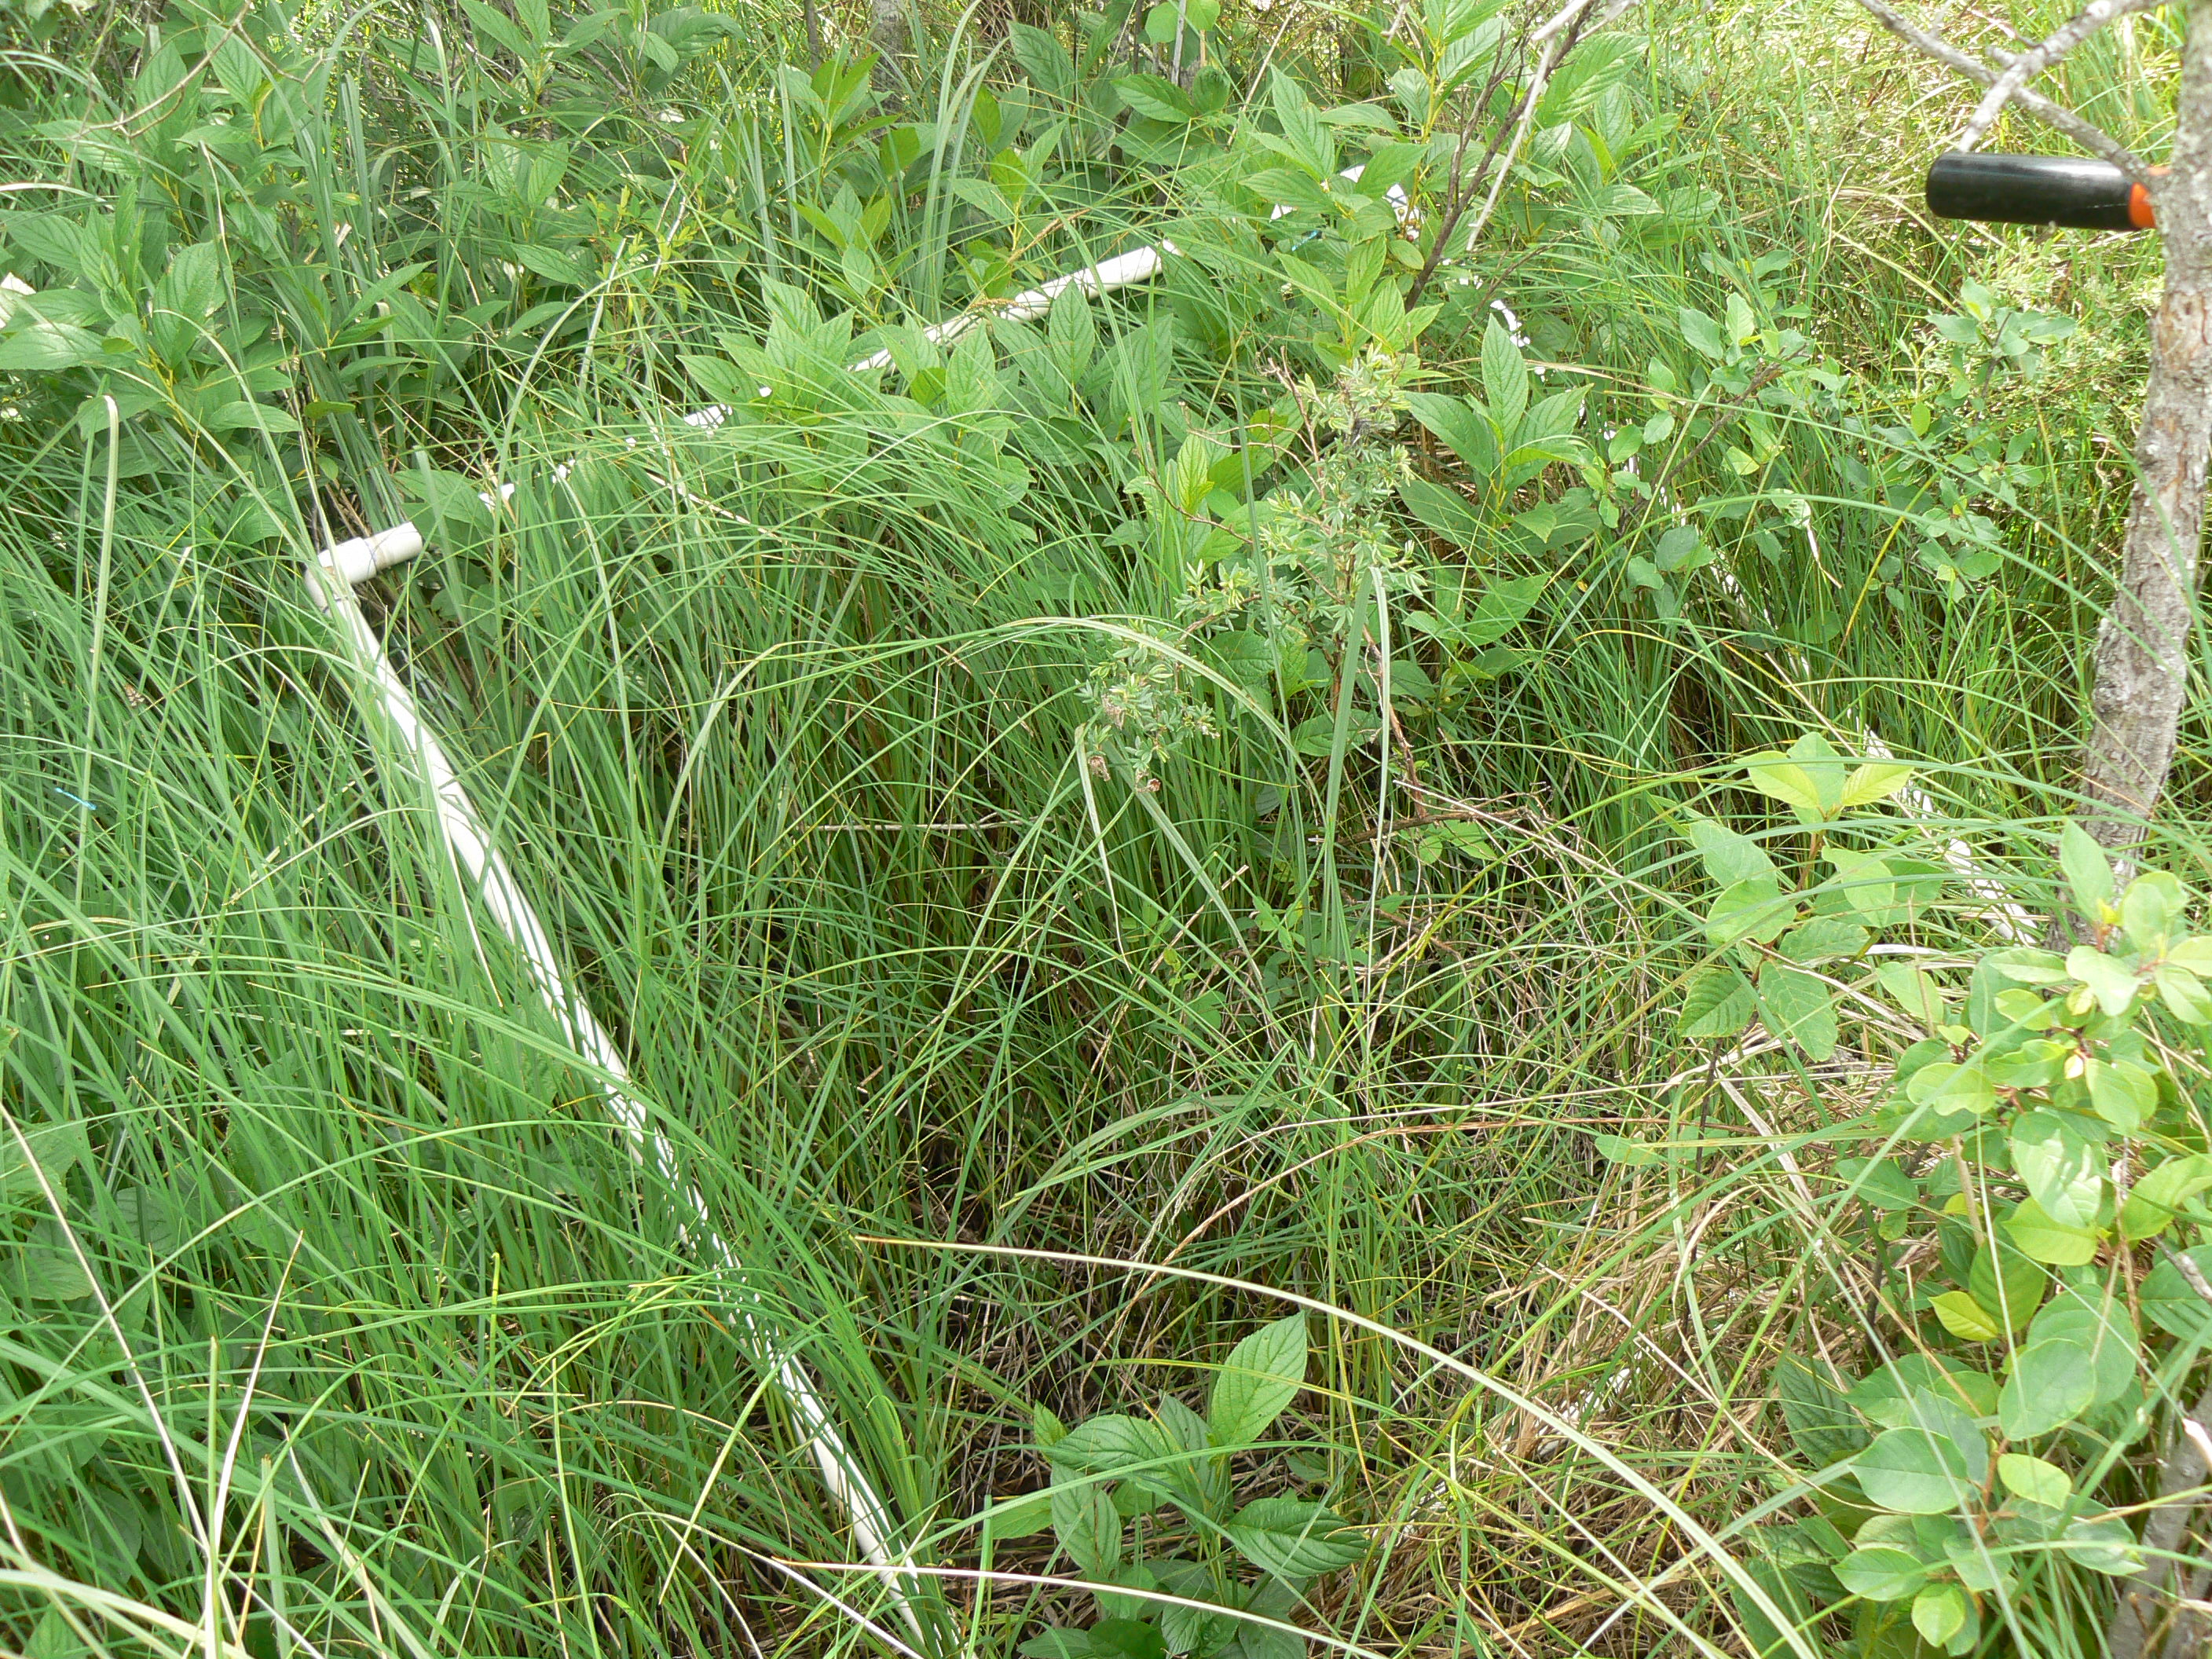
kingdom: Plantae
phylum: Tracheophyta
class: Magnoliopsida
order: Ranunculales
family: Ranunculaceae
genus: Thalictrum
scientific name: Thalictrum dasycarpum
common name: Purple meadow-rue
